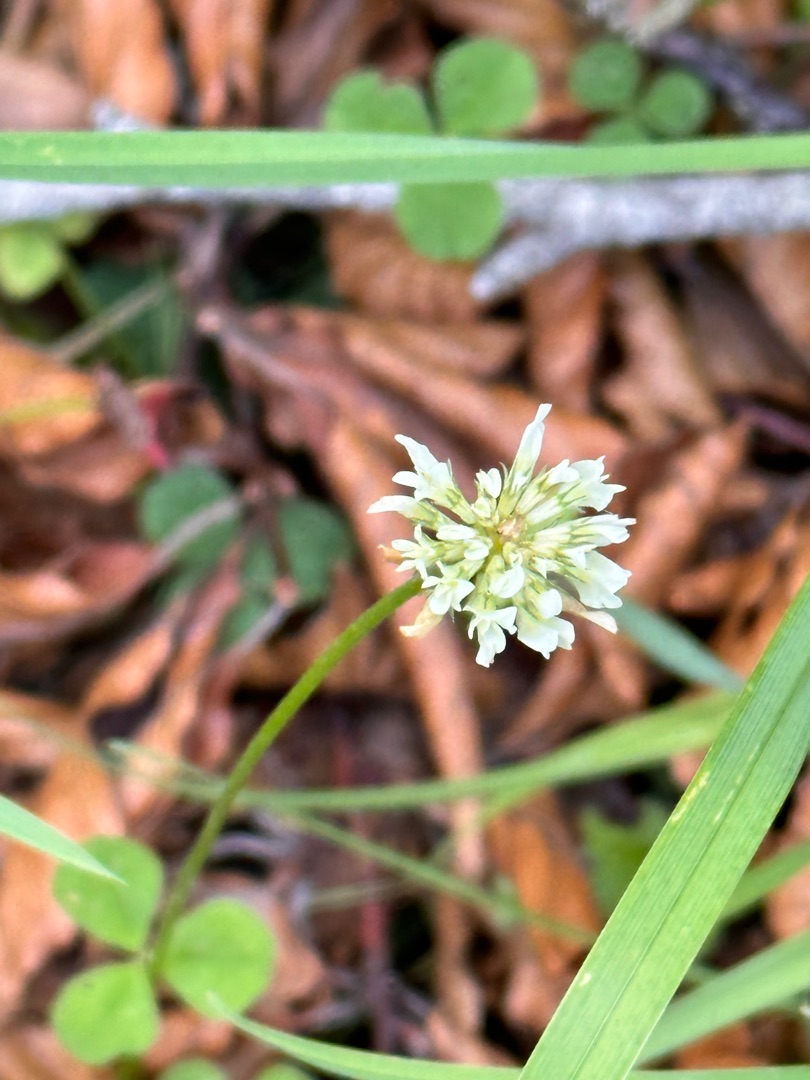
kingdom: Plantae
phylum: Tracheophyta
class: Magnoliopsida
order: Fabales
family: Fabaceae
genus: Trifolium
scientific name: Trifolium repens
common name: Hvid-kløver
